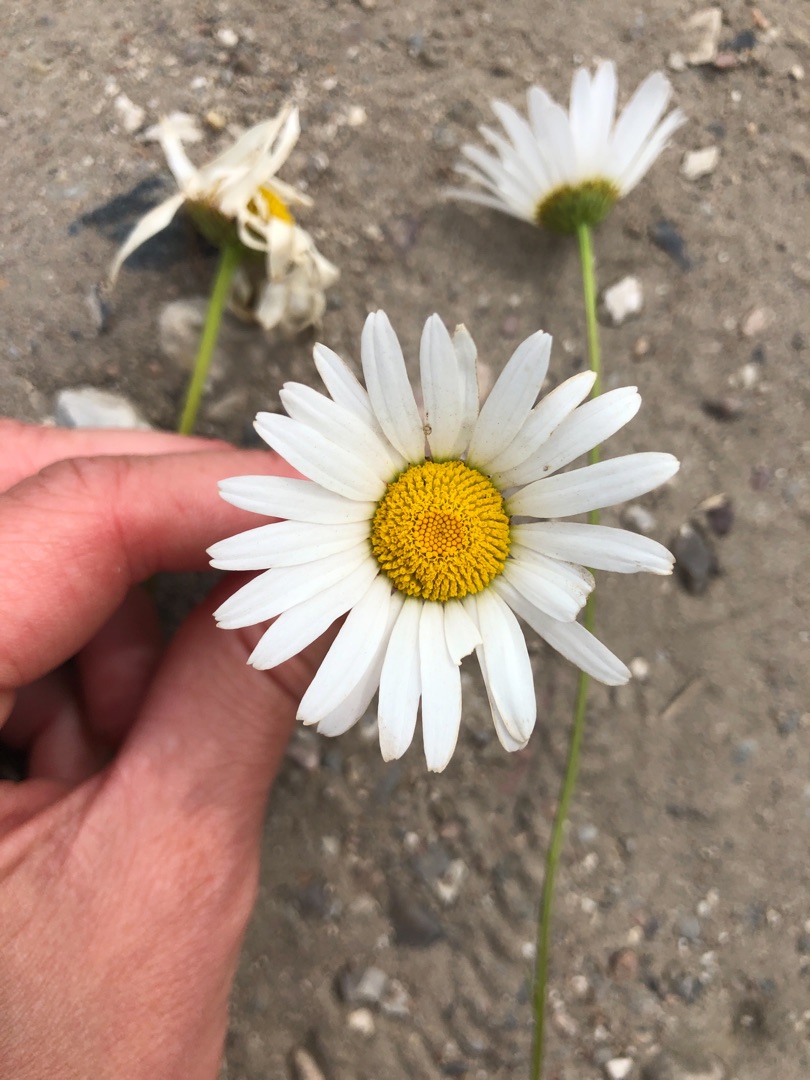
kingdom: Plantae
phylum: Tracheophyta
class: Magnoliopsida
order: Asterales
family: Asteraceae
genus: Leucanthemum
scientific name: Leucanthemum vulgare
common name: Hvid okseøje
